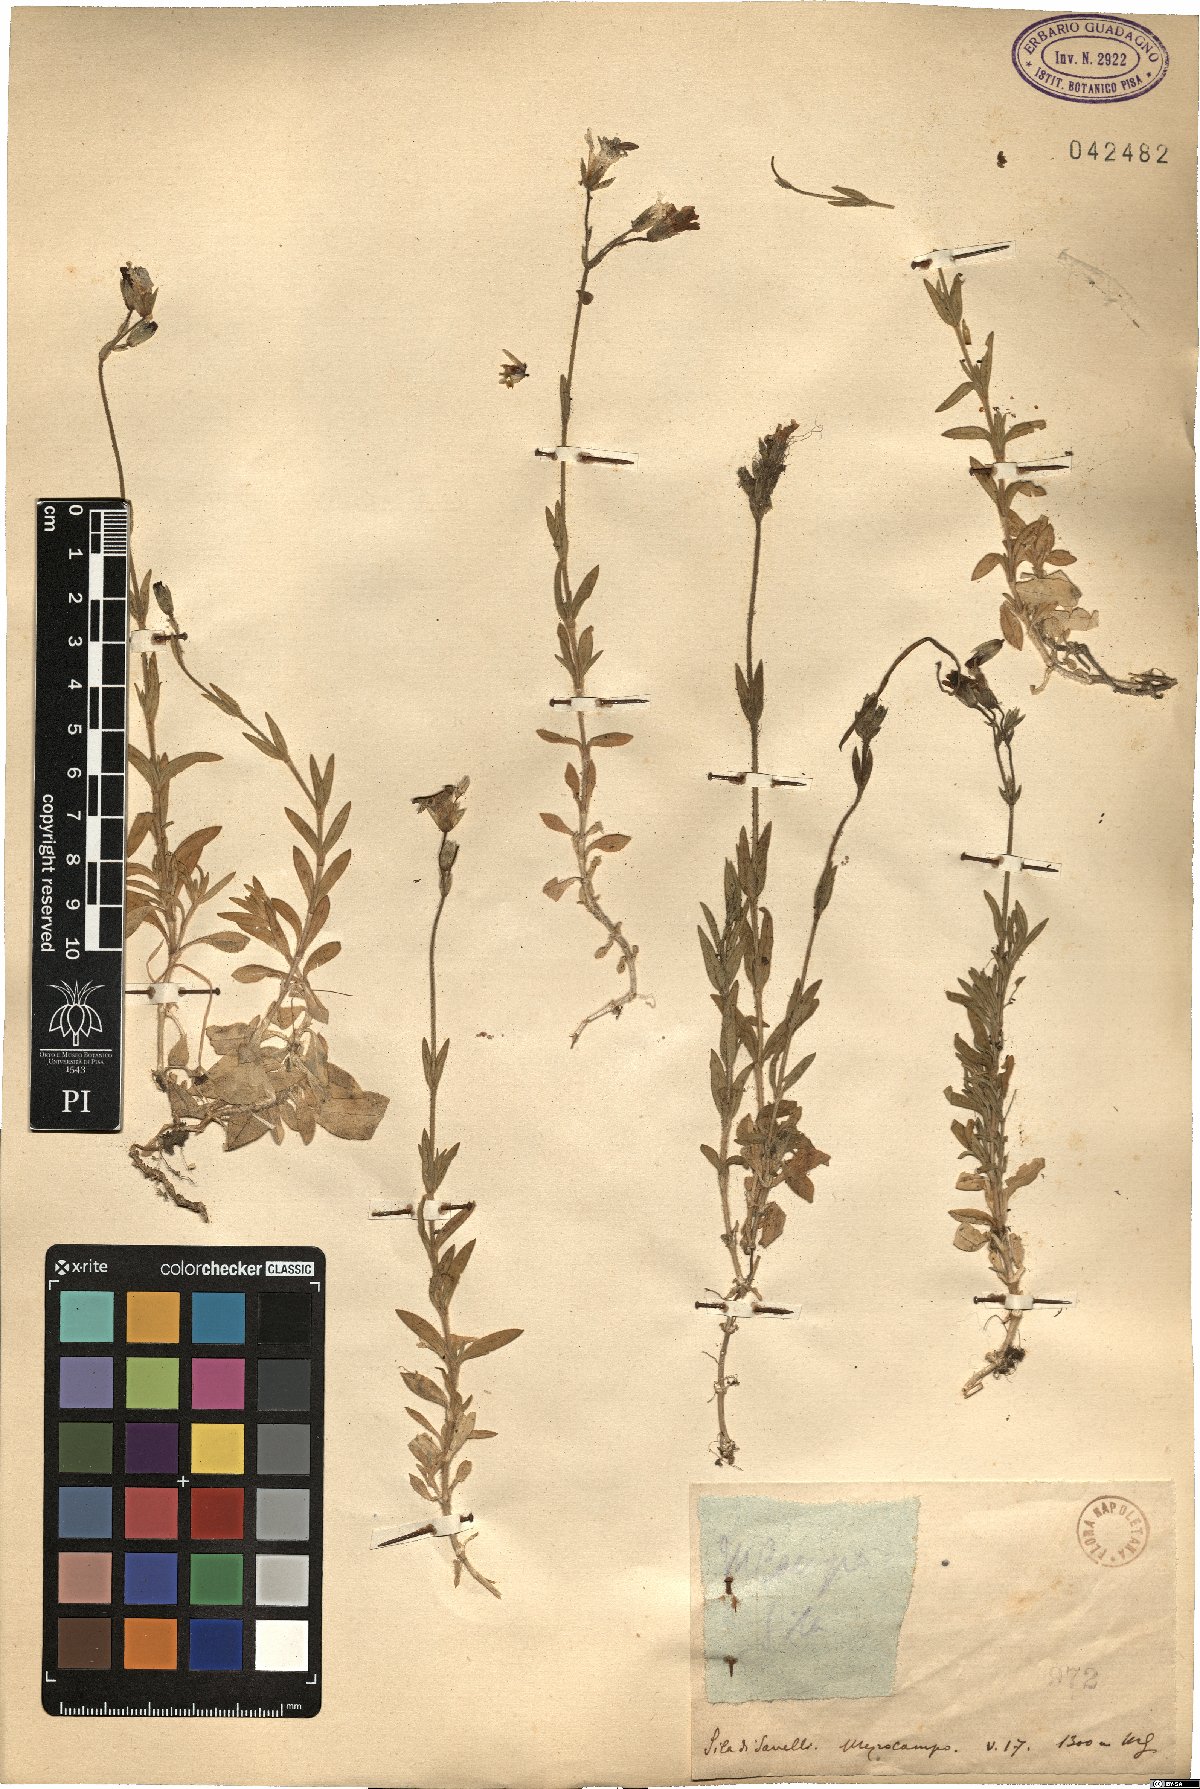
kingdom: Plantae
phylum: Tracheophyta
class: Magnoliopsida
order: Caryophyllales
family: Caryophyllaceae
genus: Cerastium
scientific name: Cerastium
